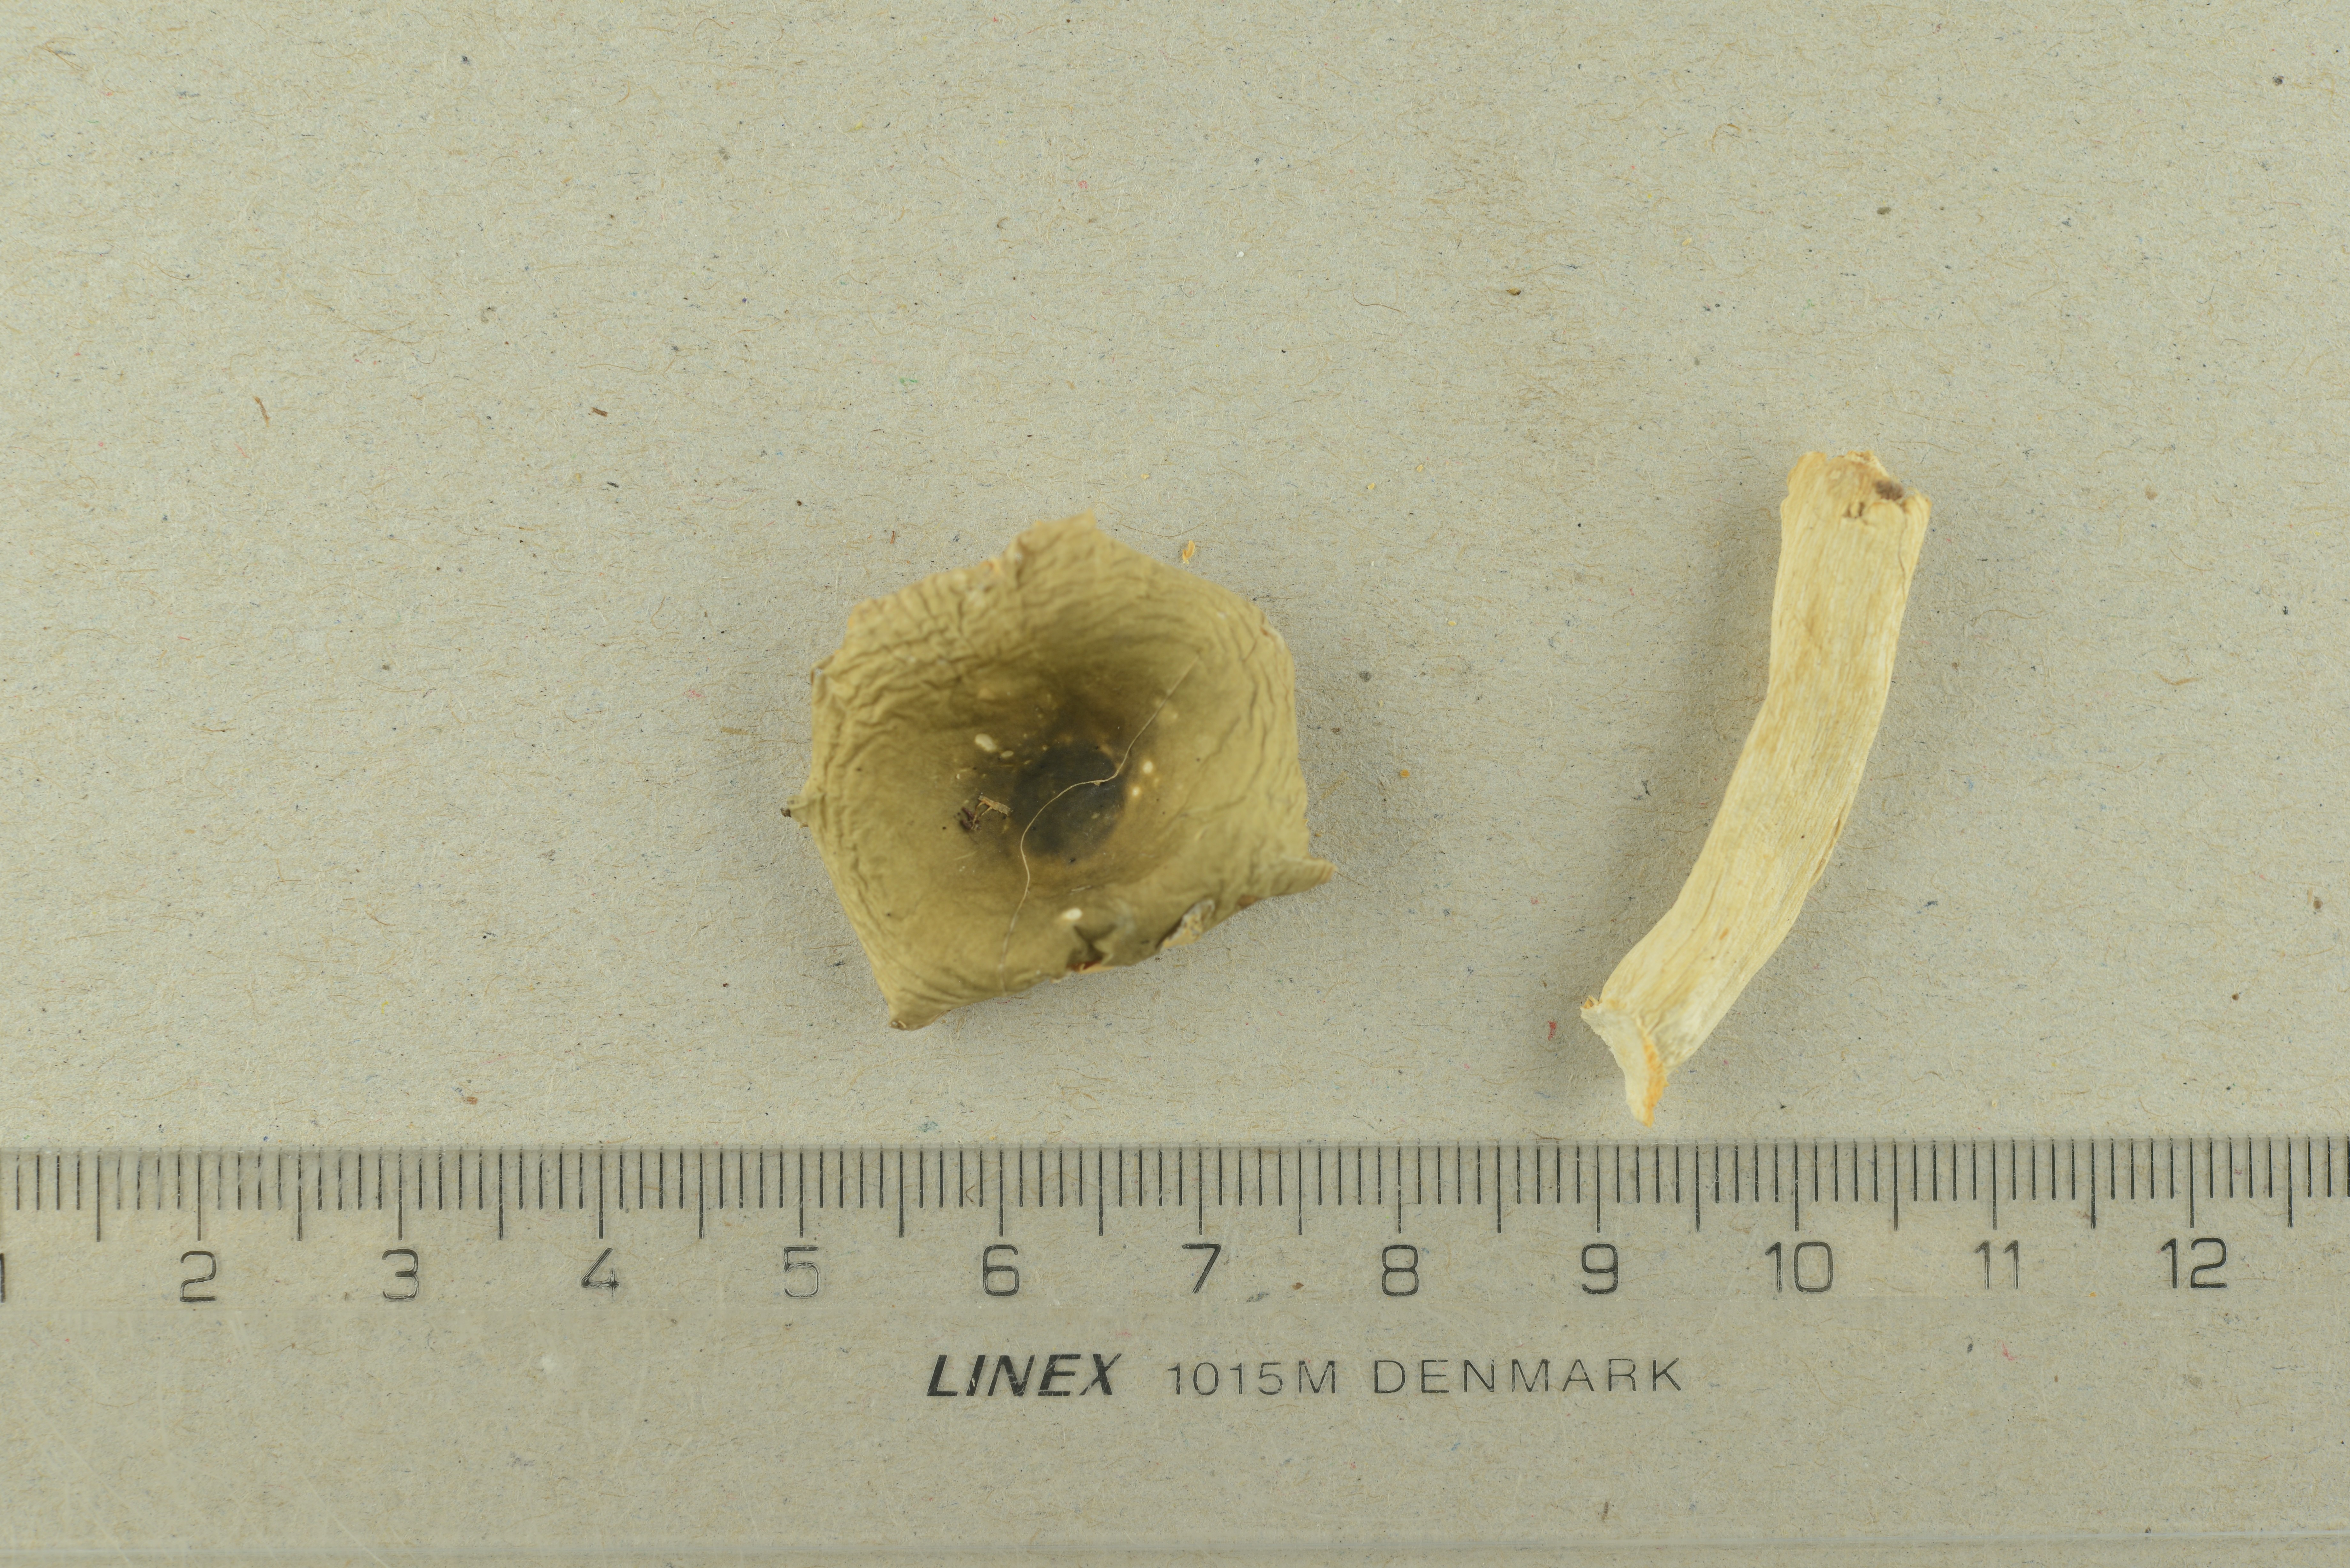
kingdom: Fungi
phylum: Basidiomycota
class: Agaricomycetes
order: Russulales
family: Russulaceae
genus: Russula
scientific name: Russula olivina
